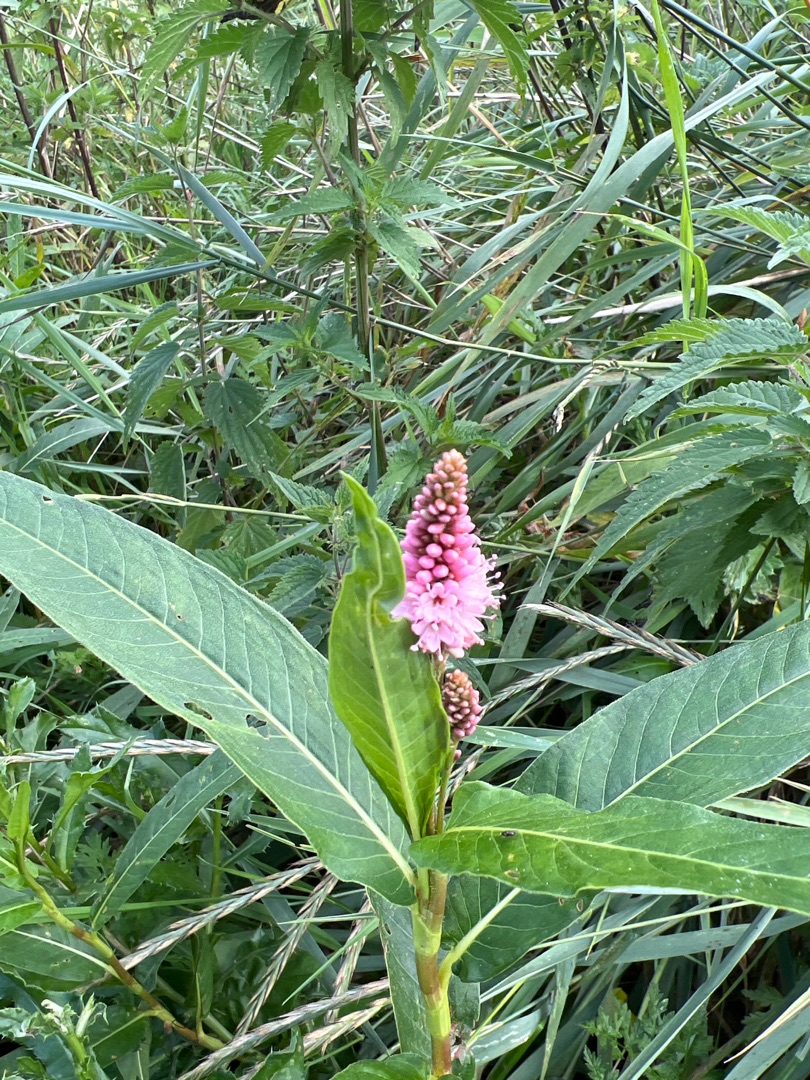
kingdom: Plantae
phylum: Tracheophyta
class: Magnoliopsida
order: Caryophyllales
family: Polygonaceae
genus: Persicaria
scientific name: Persicaria amphibia
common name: Vand-pileurt
